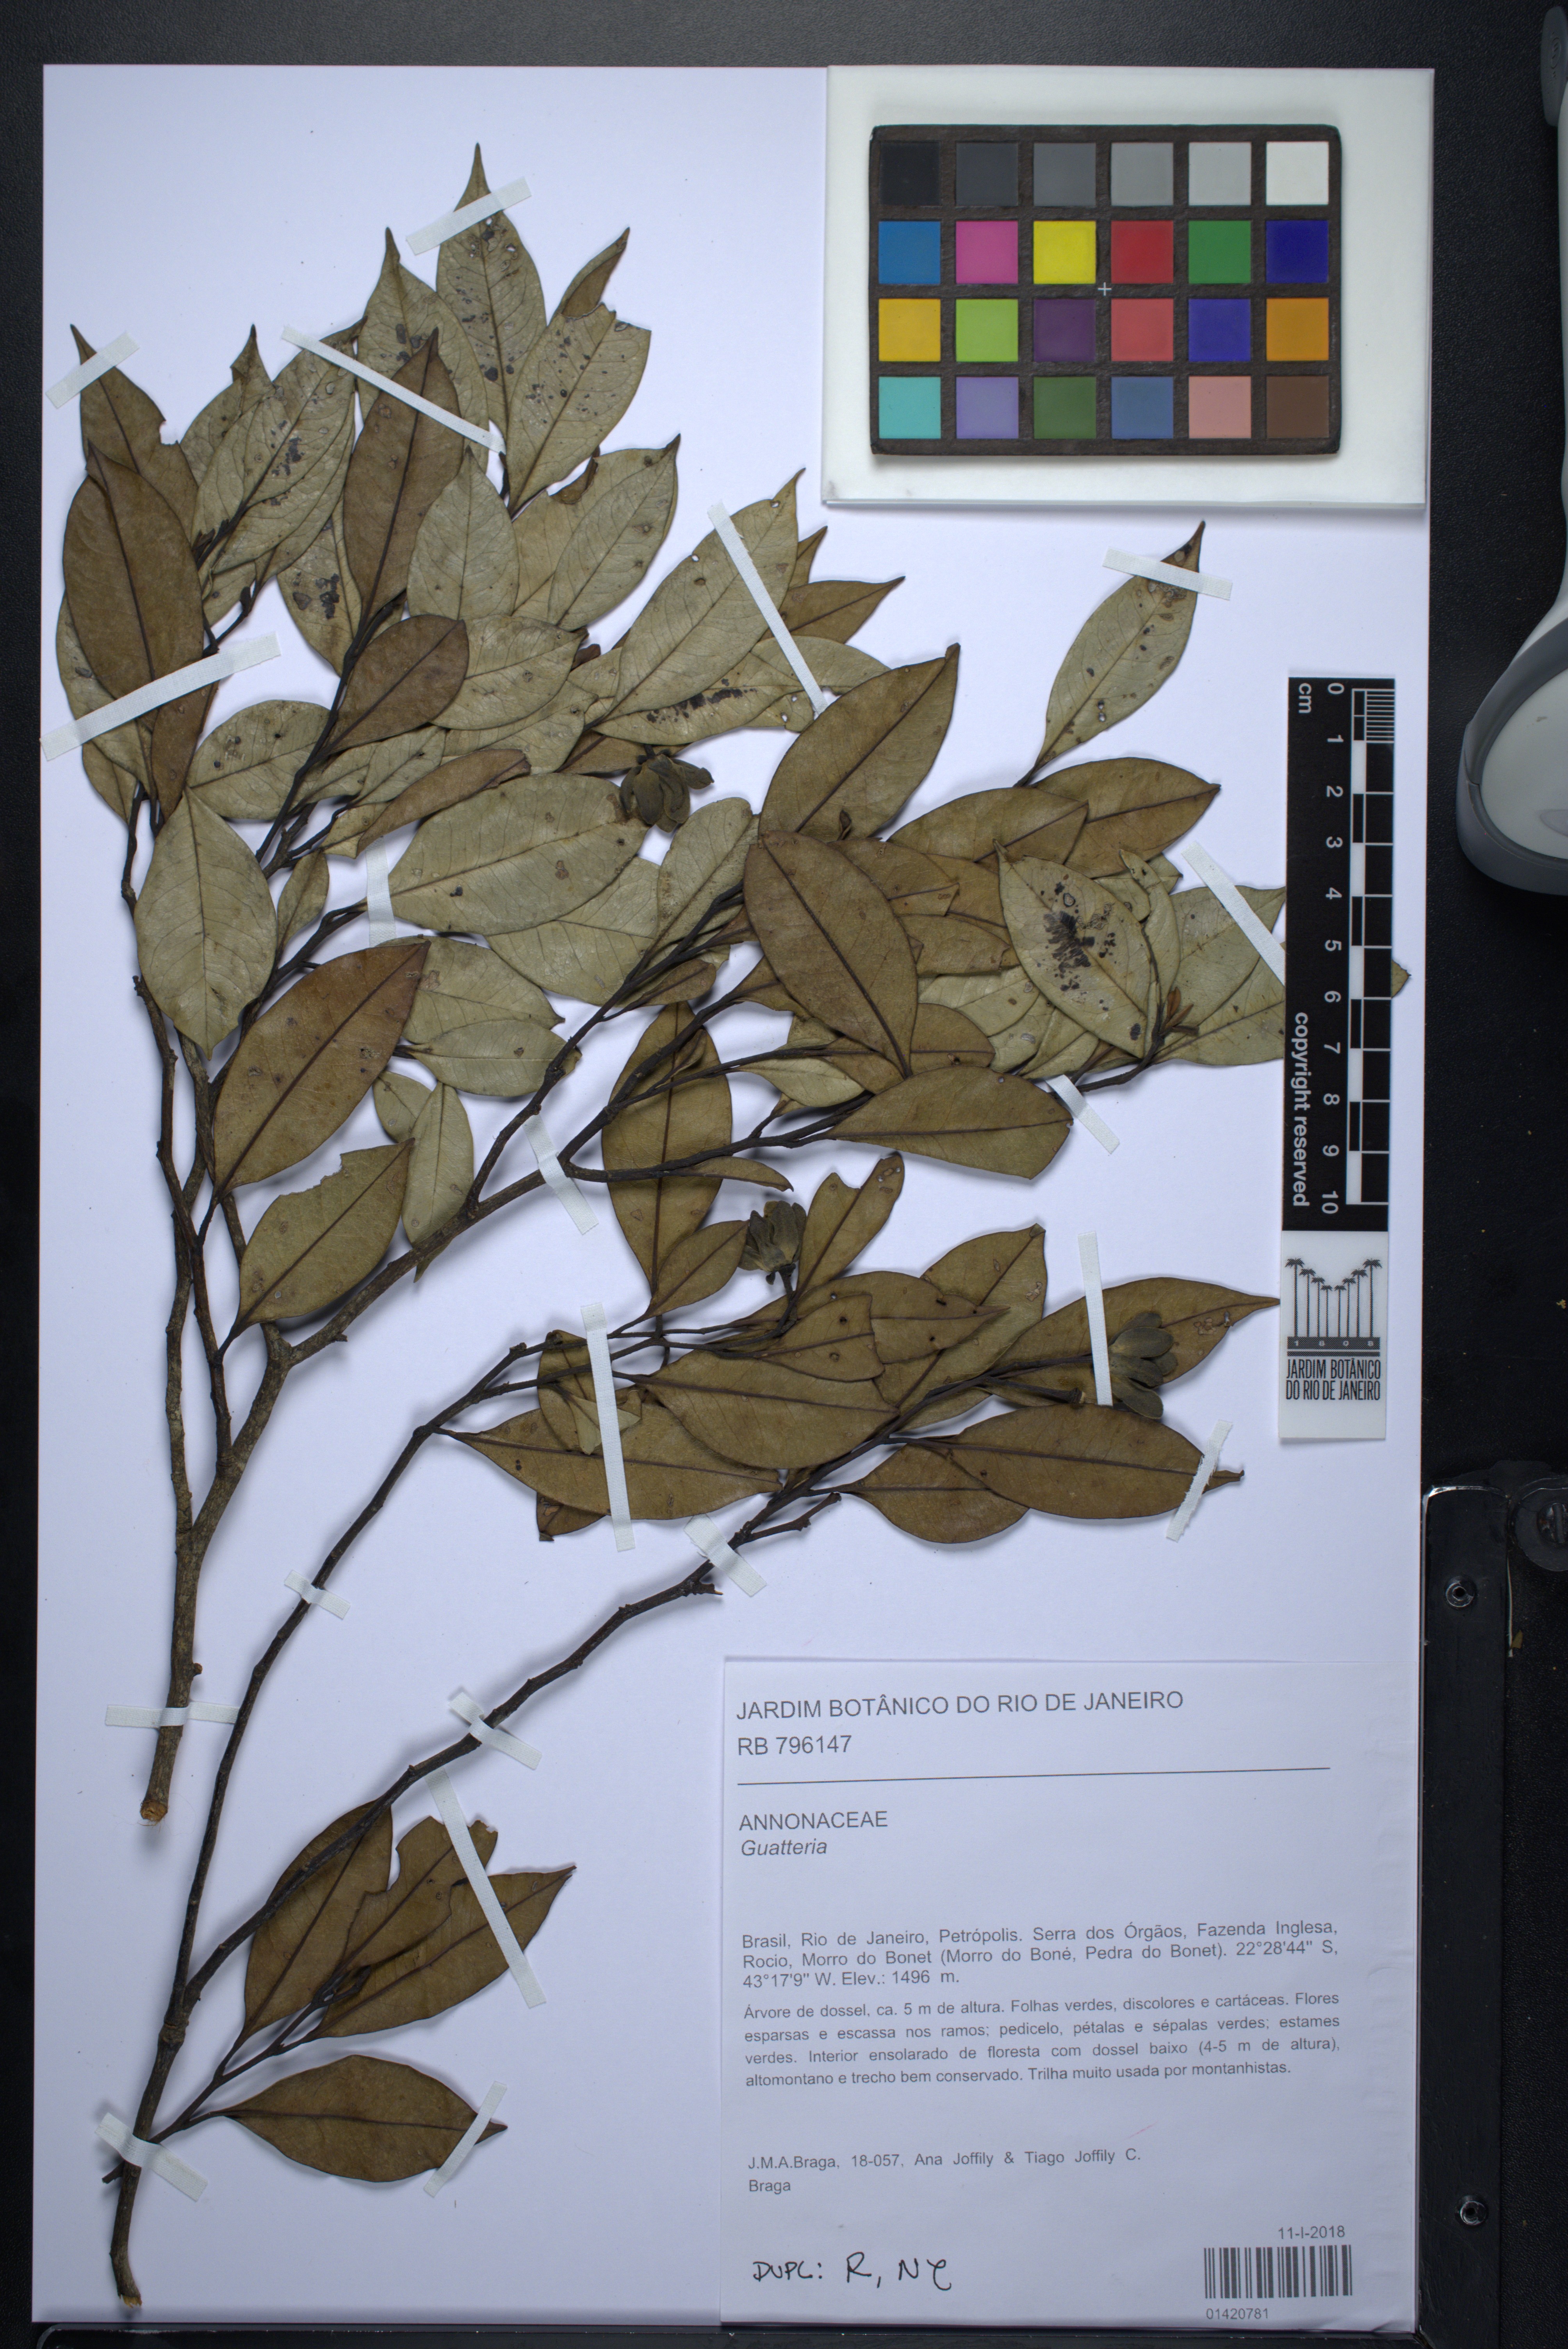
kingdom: Plantae
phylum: Tracheophyta
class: Magnoliopsida
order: Magnoliales
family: Annonaceae
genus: Guatteria
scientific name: Guatteria
